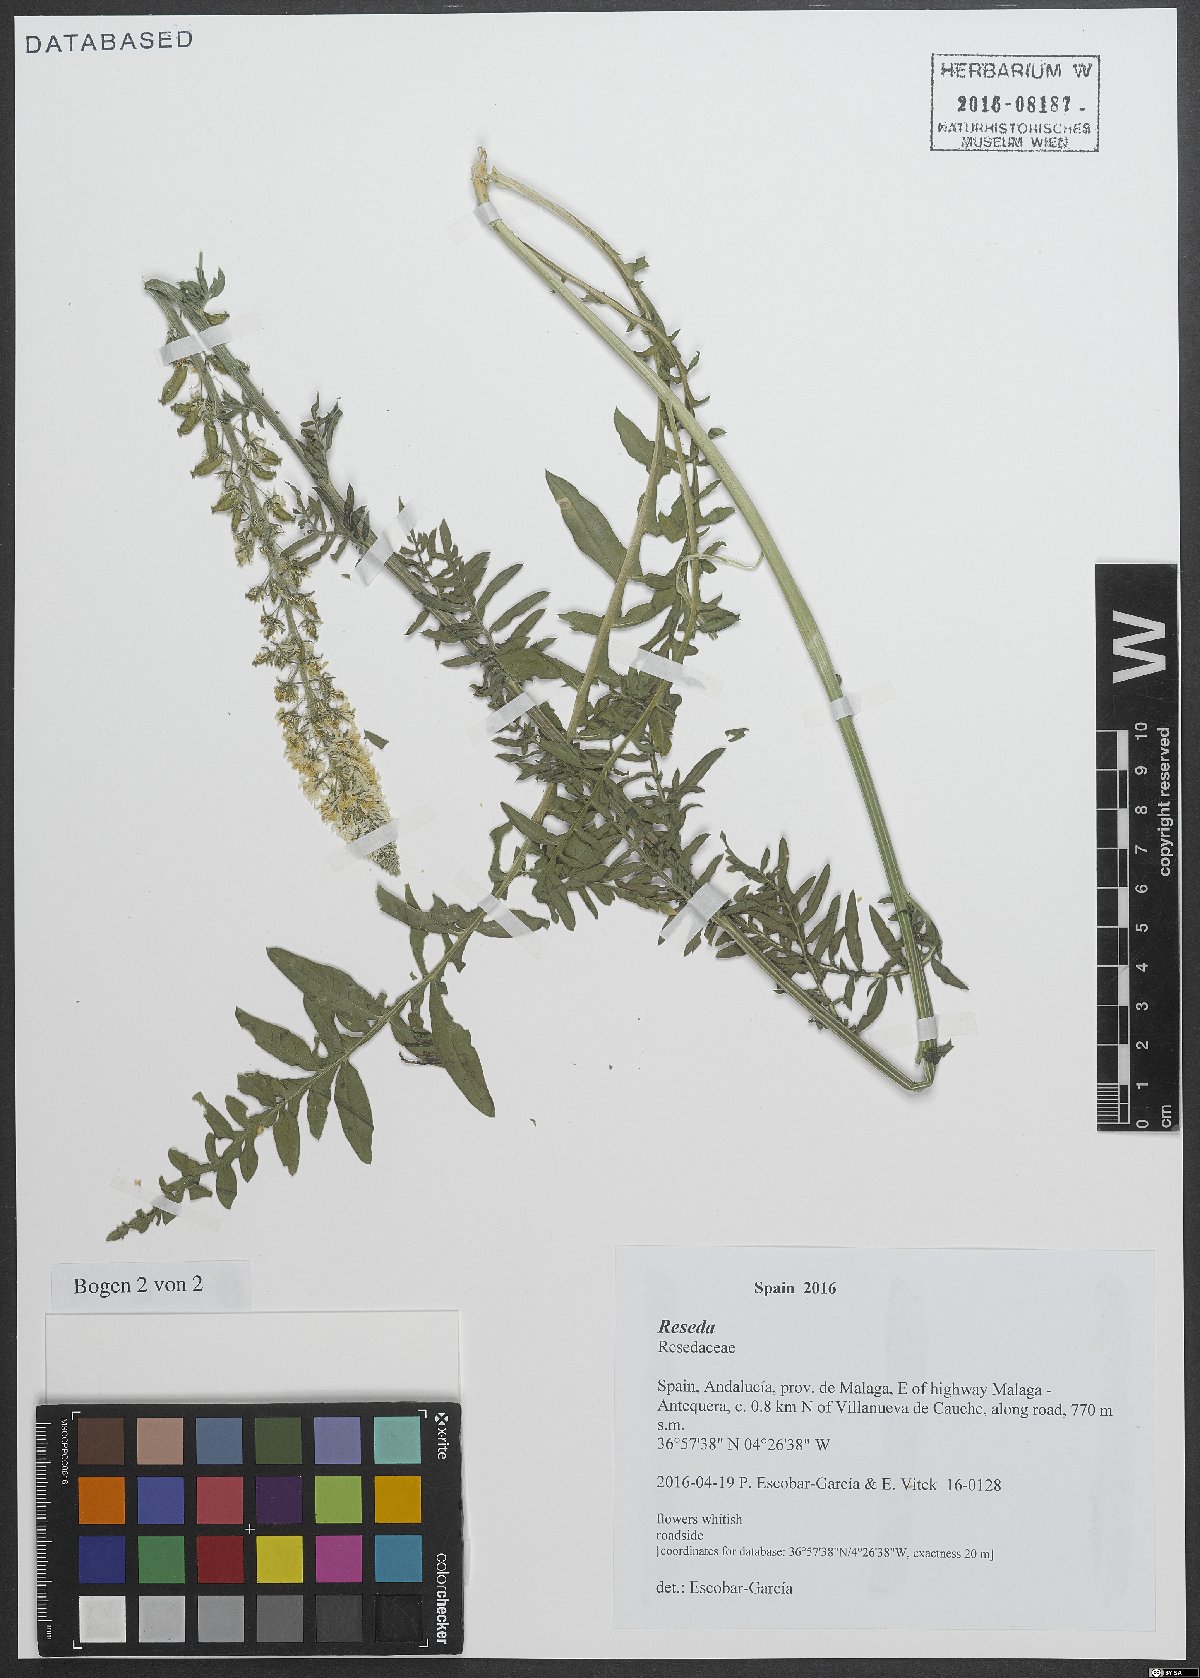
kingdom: Plantae
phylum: Tracheophyta
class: Magnoliopsida
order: Brassicales
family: Resedaceae
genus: Reseda
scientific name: Reseda alba
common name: White mignonette
